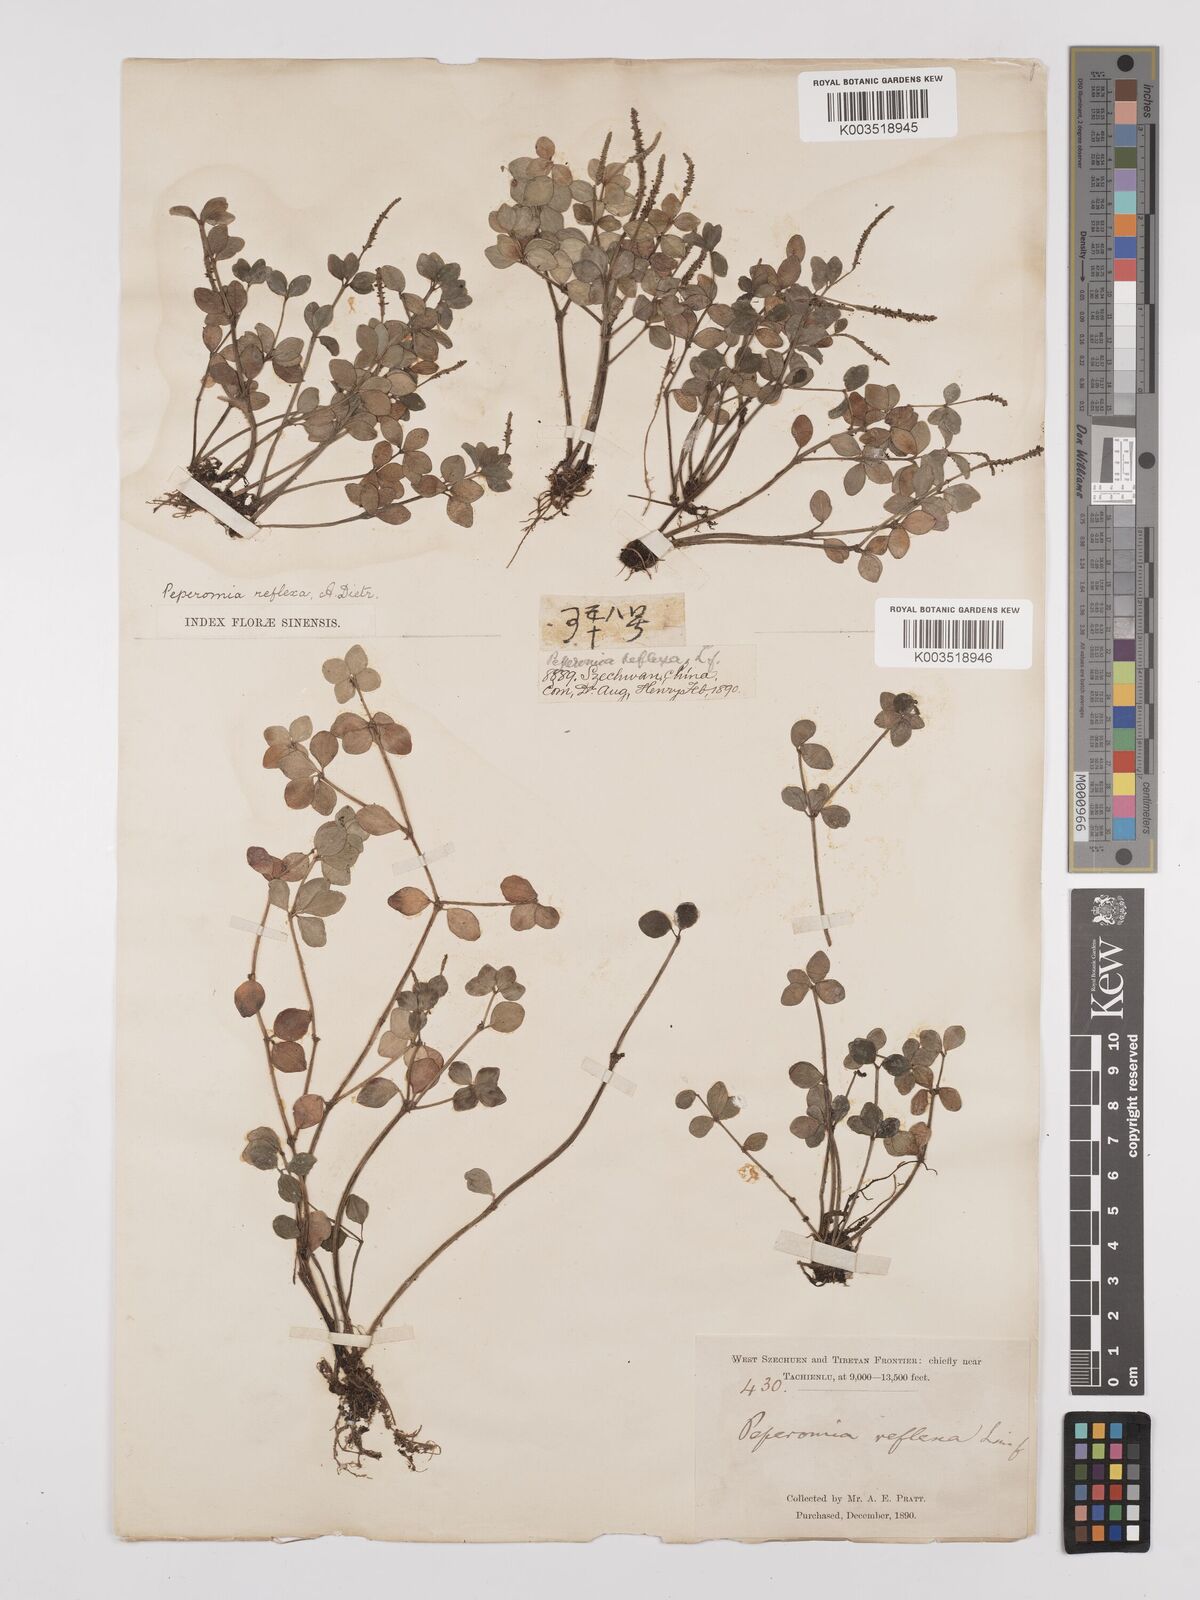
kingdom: Plantae
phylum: Tracheophyta
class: Magnoliopsida
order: Piperales
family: Piperaceae
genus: Peperomia
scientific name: Peperomia tetraphylla
